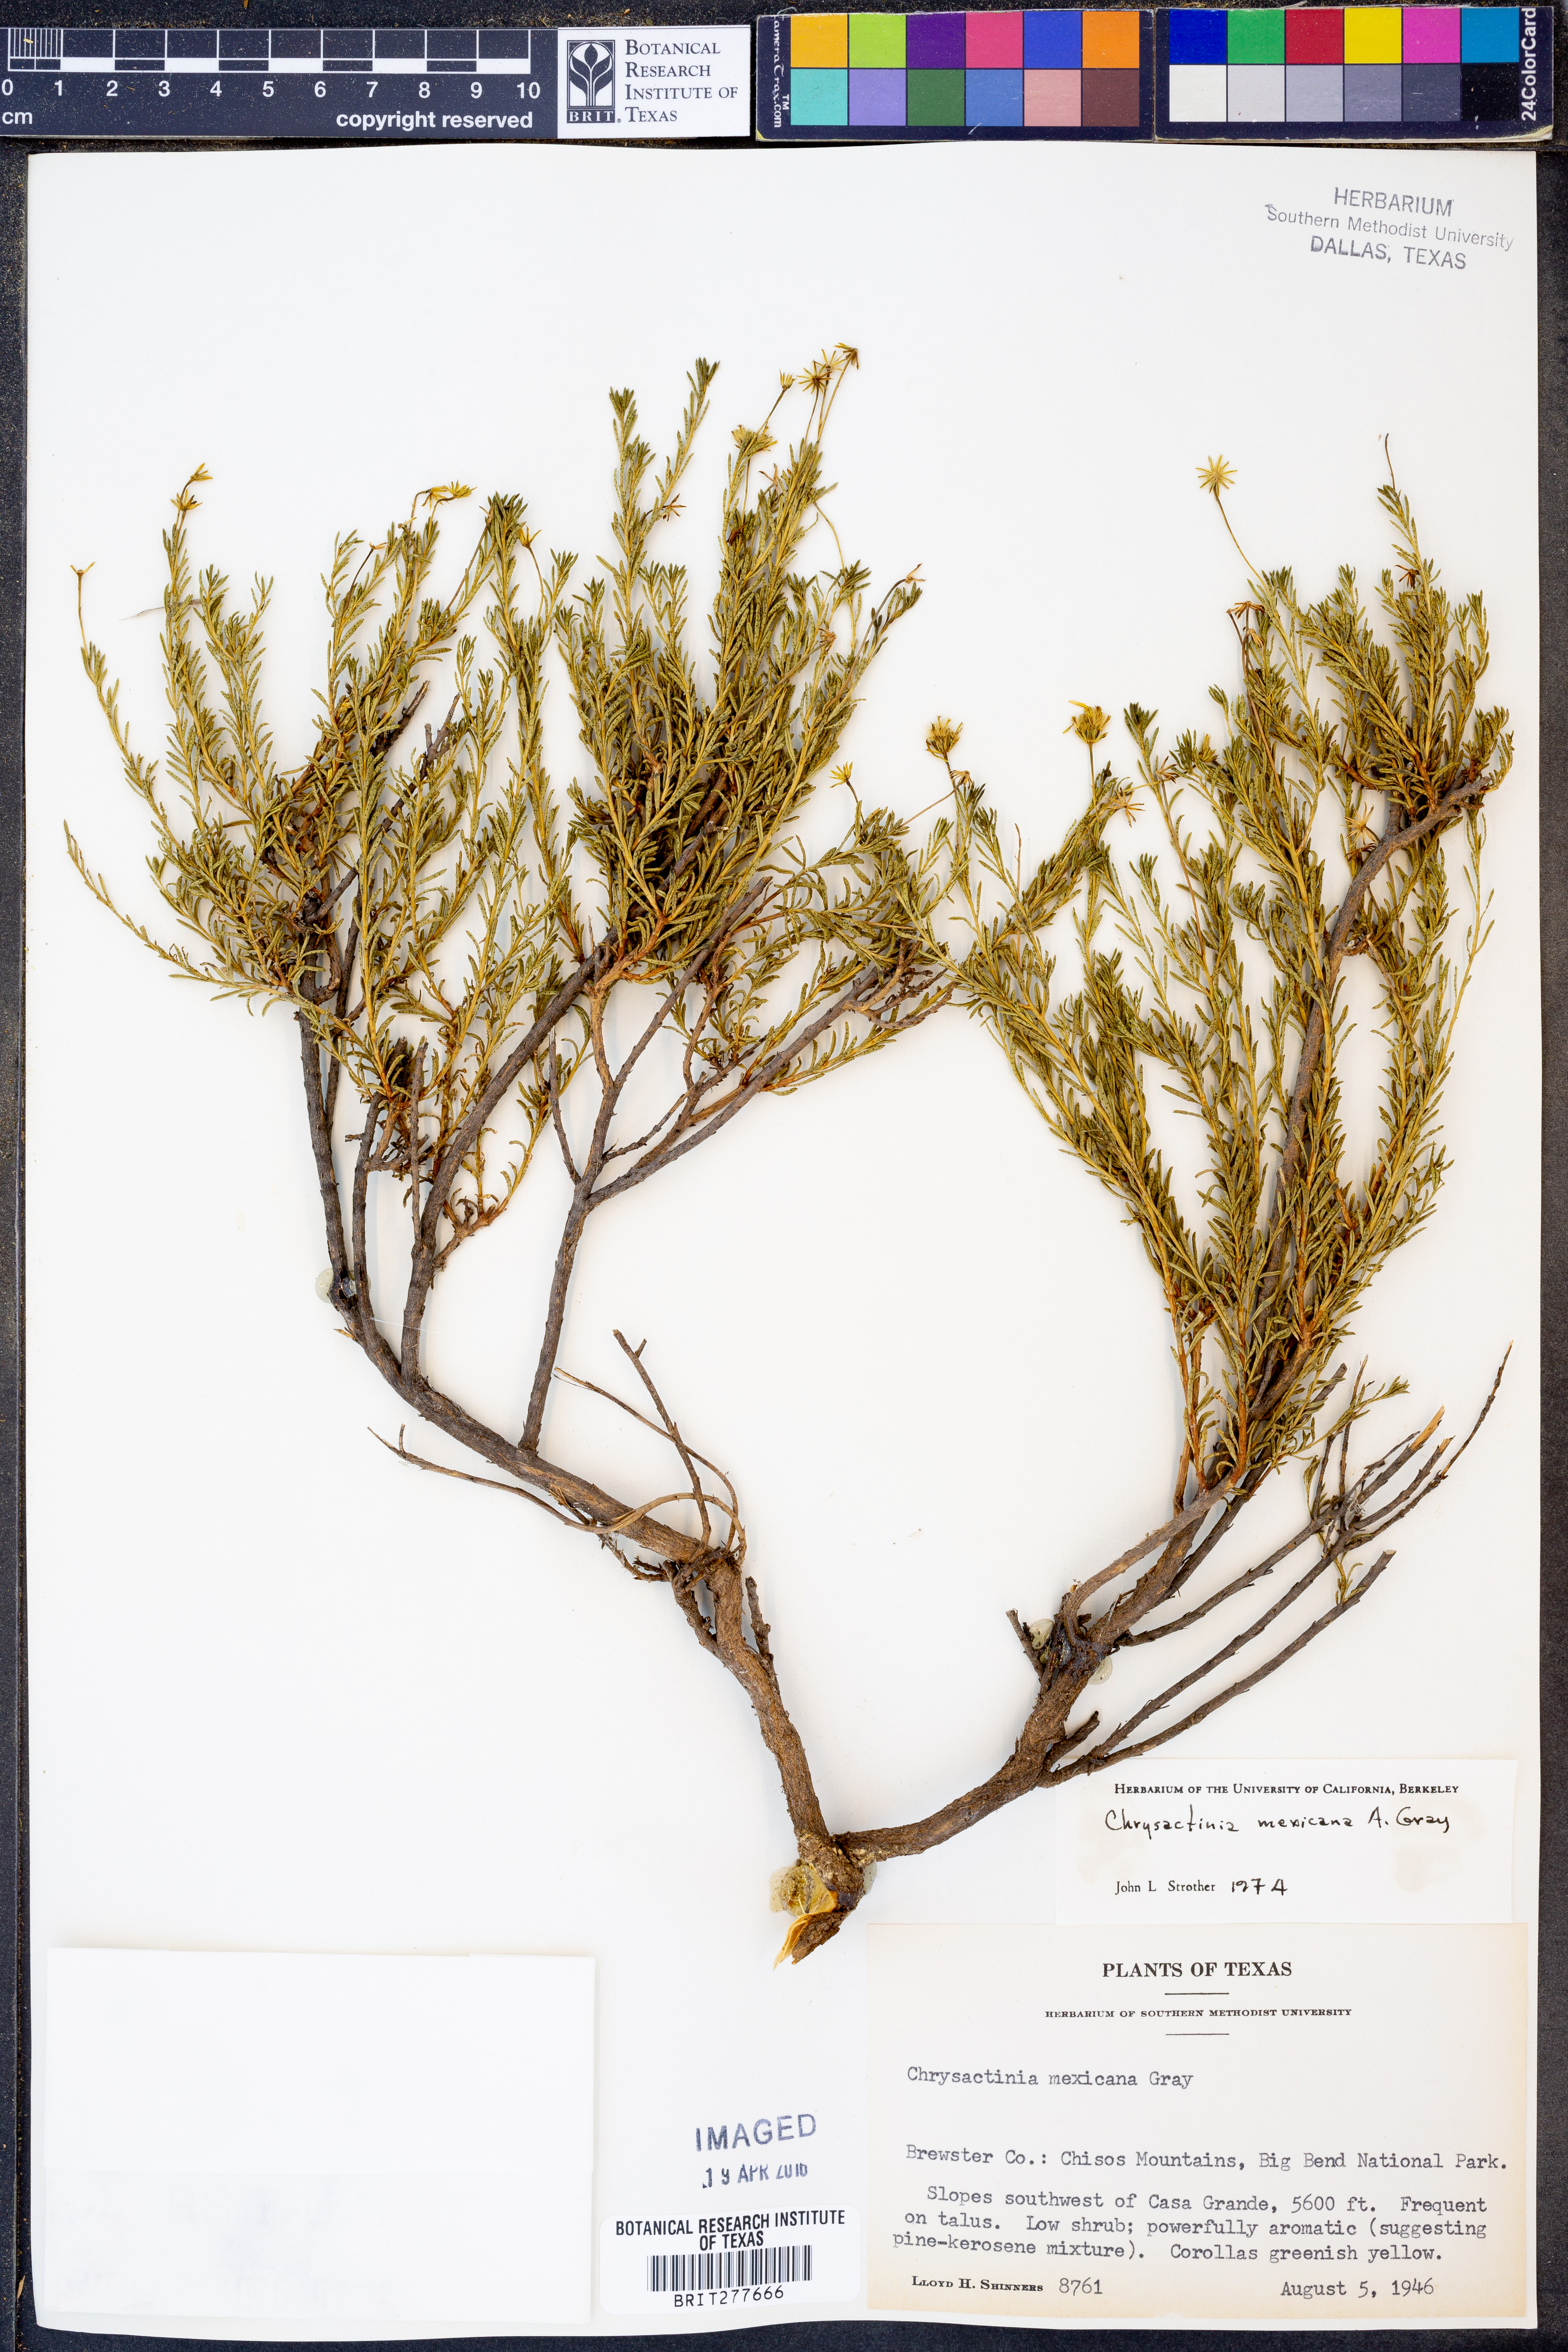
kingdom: Plantae
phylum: Tracheophyta
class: Magnoliopsida
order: Asterales
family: Asteraceae
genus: Chrysactinia
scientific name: Chrysactinia mexicana
